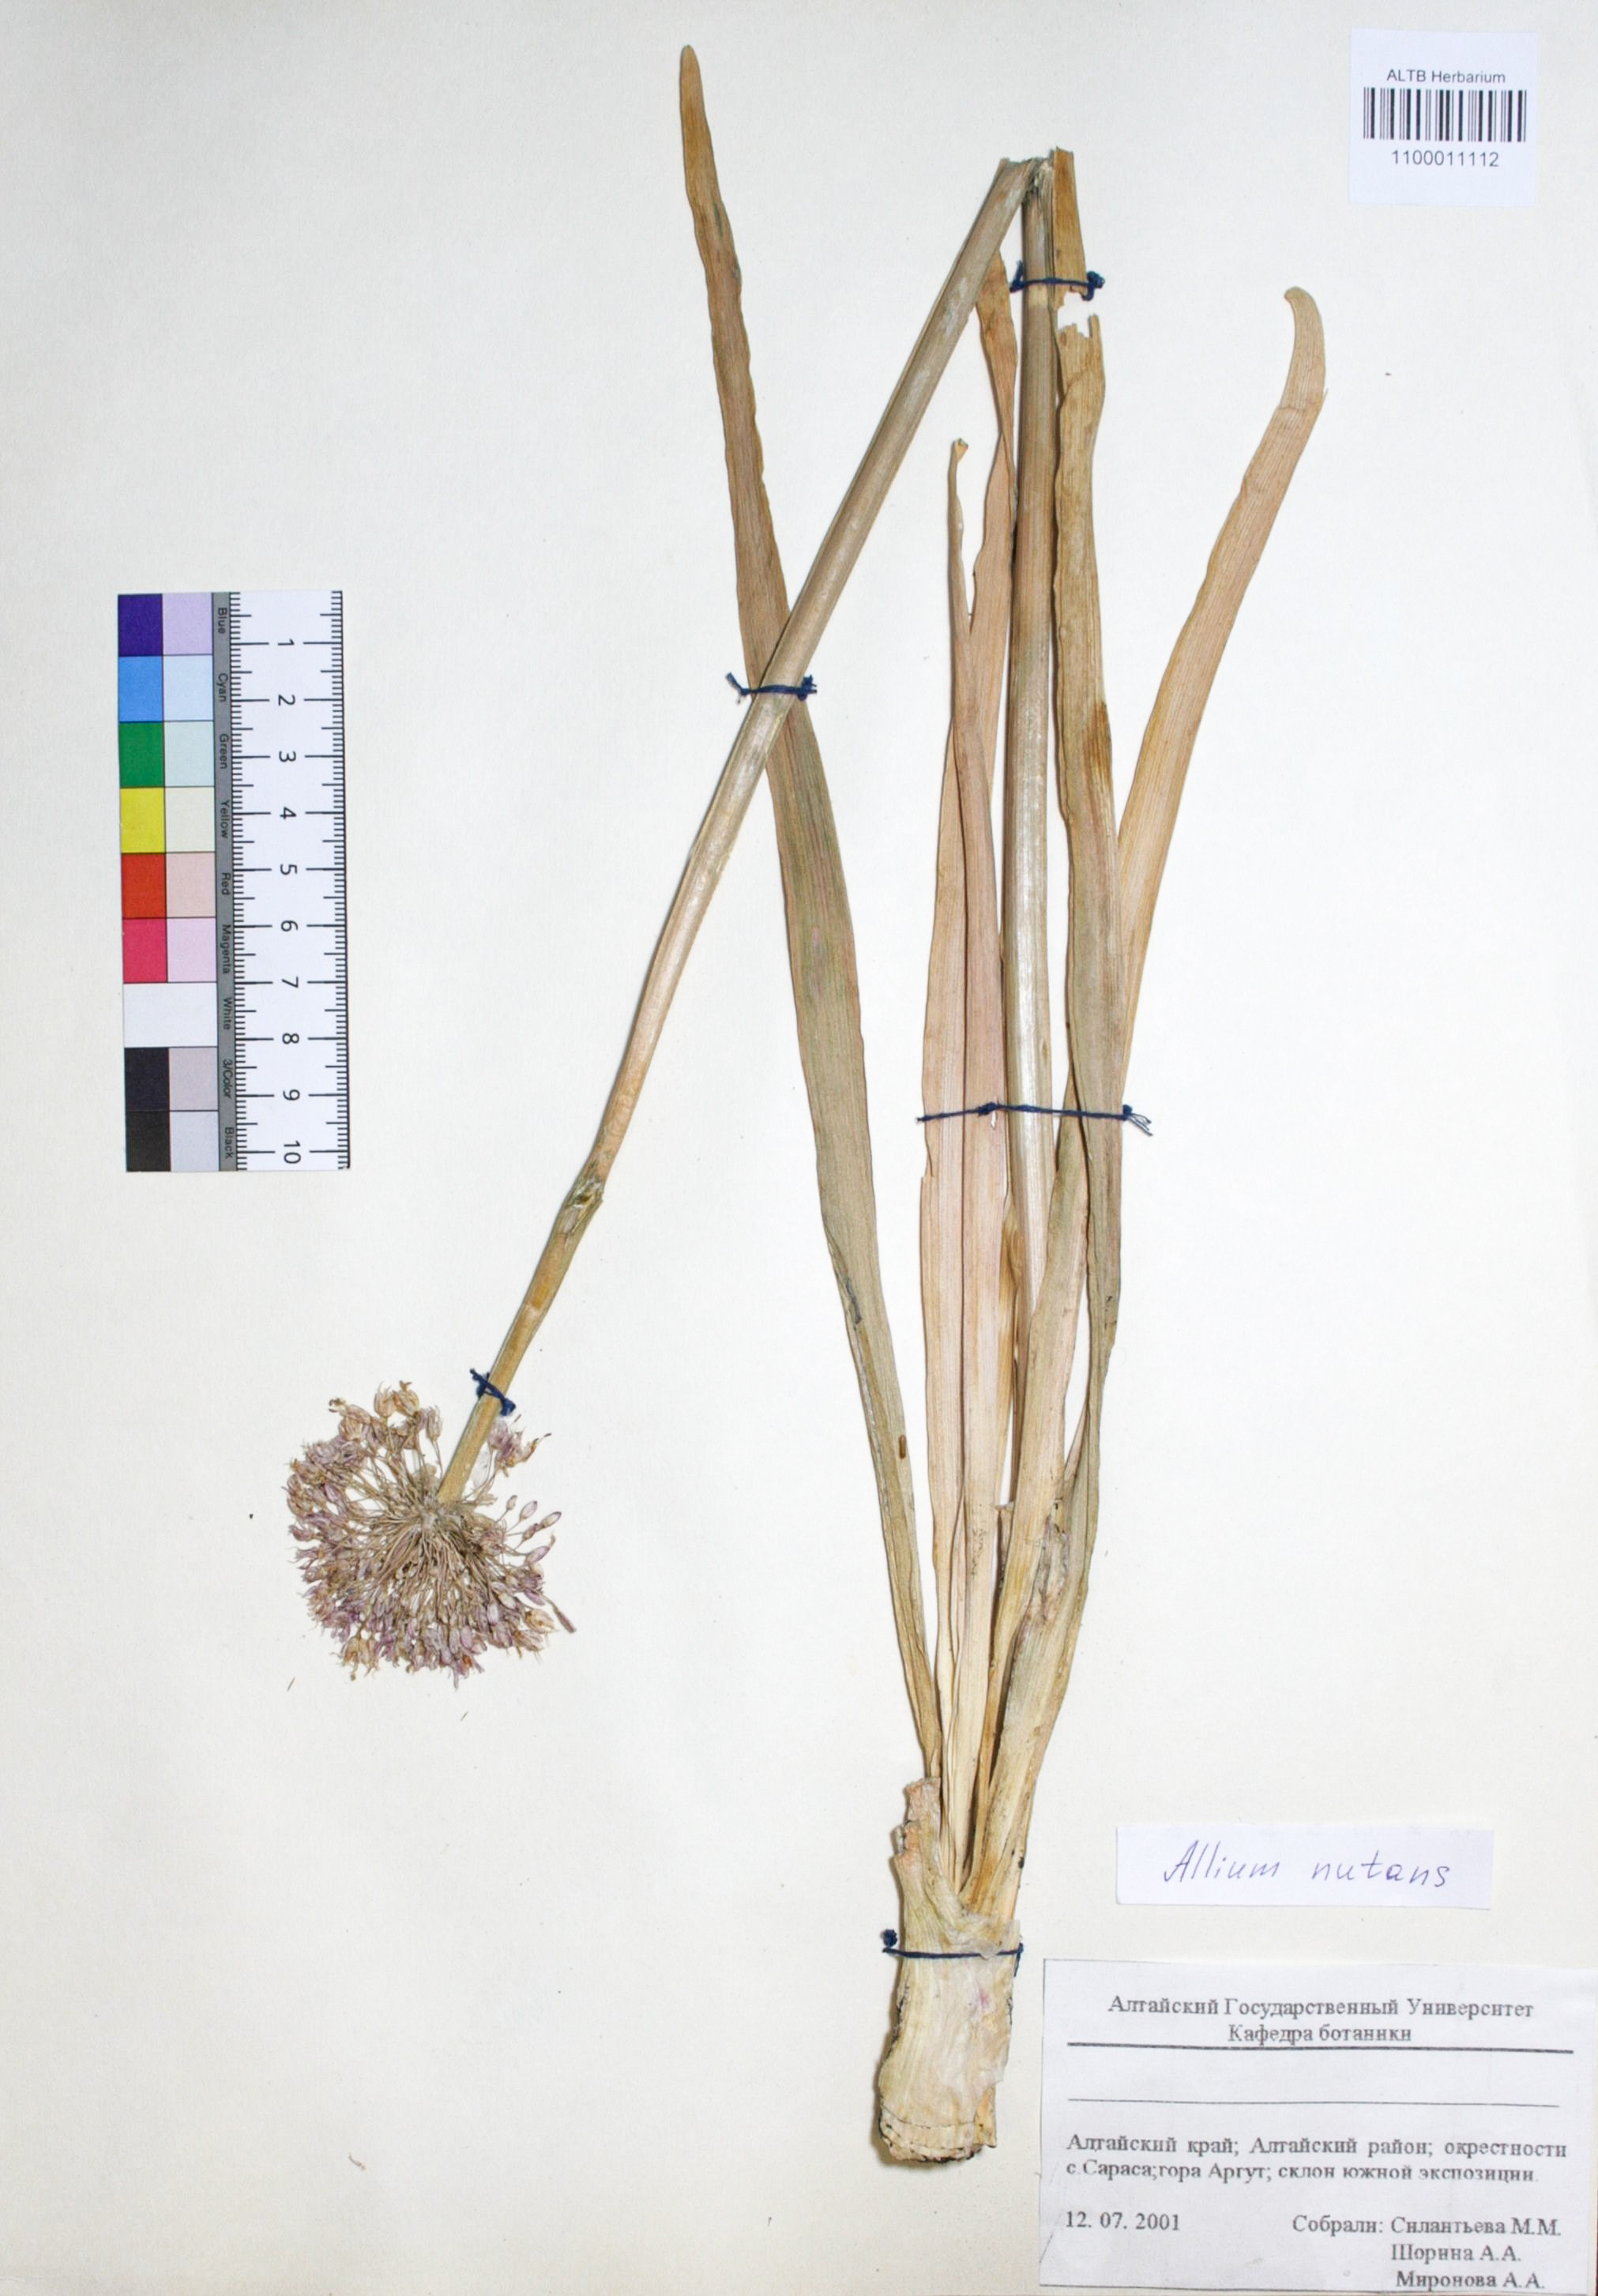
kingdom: Plantae
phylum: Tracheophyta
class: Liliopsida
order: Asparagales
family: Amaryllidaceae
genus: Allium
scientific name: Allium nutans
